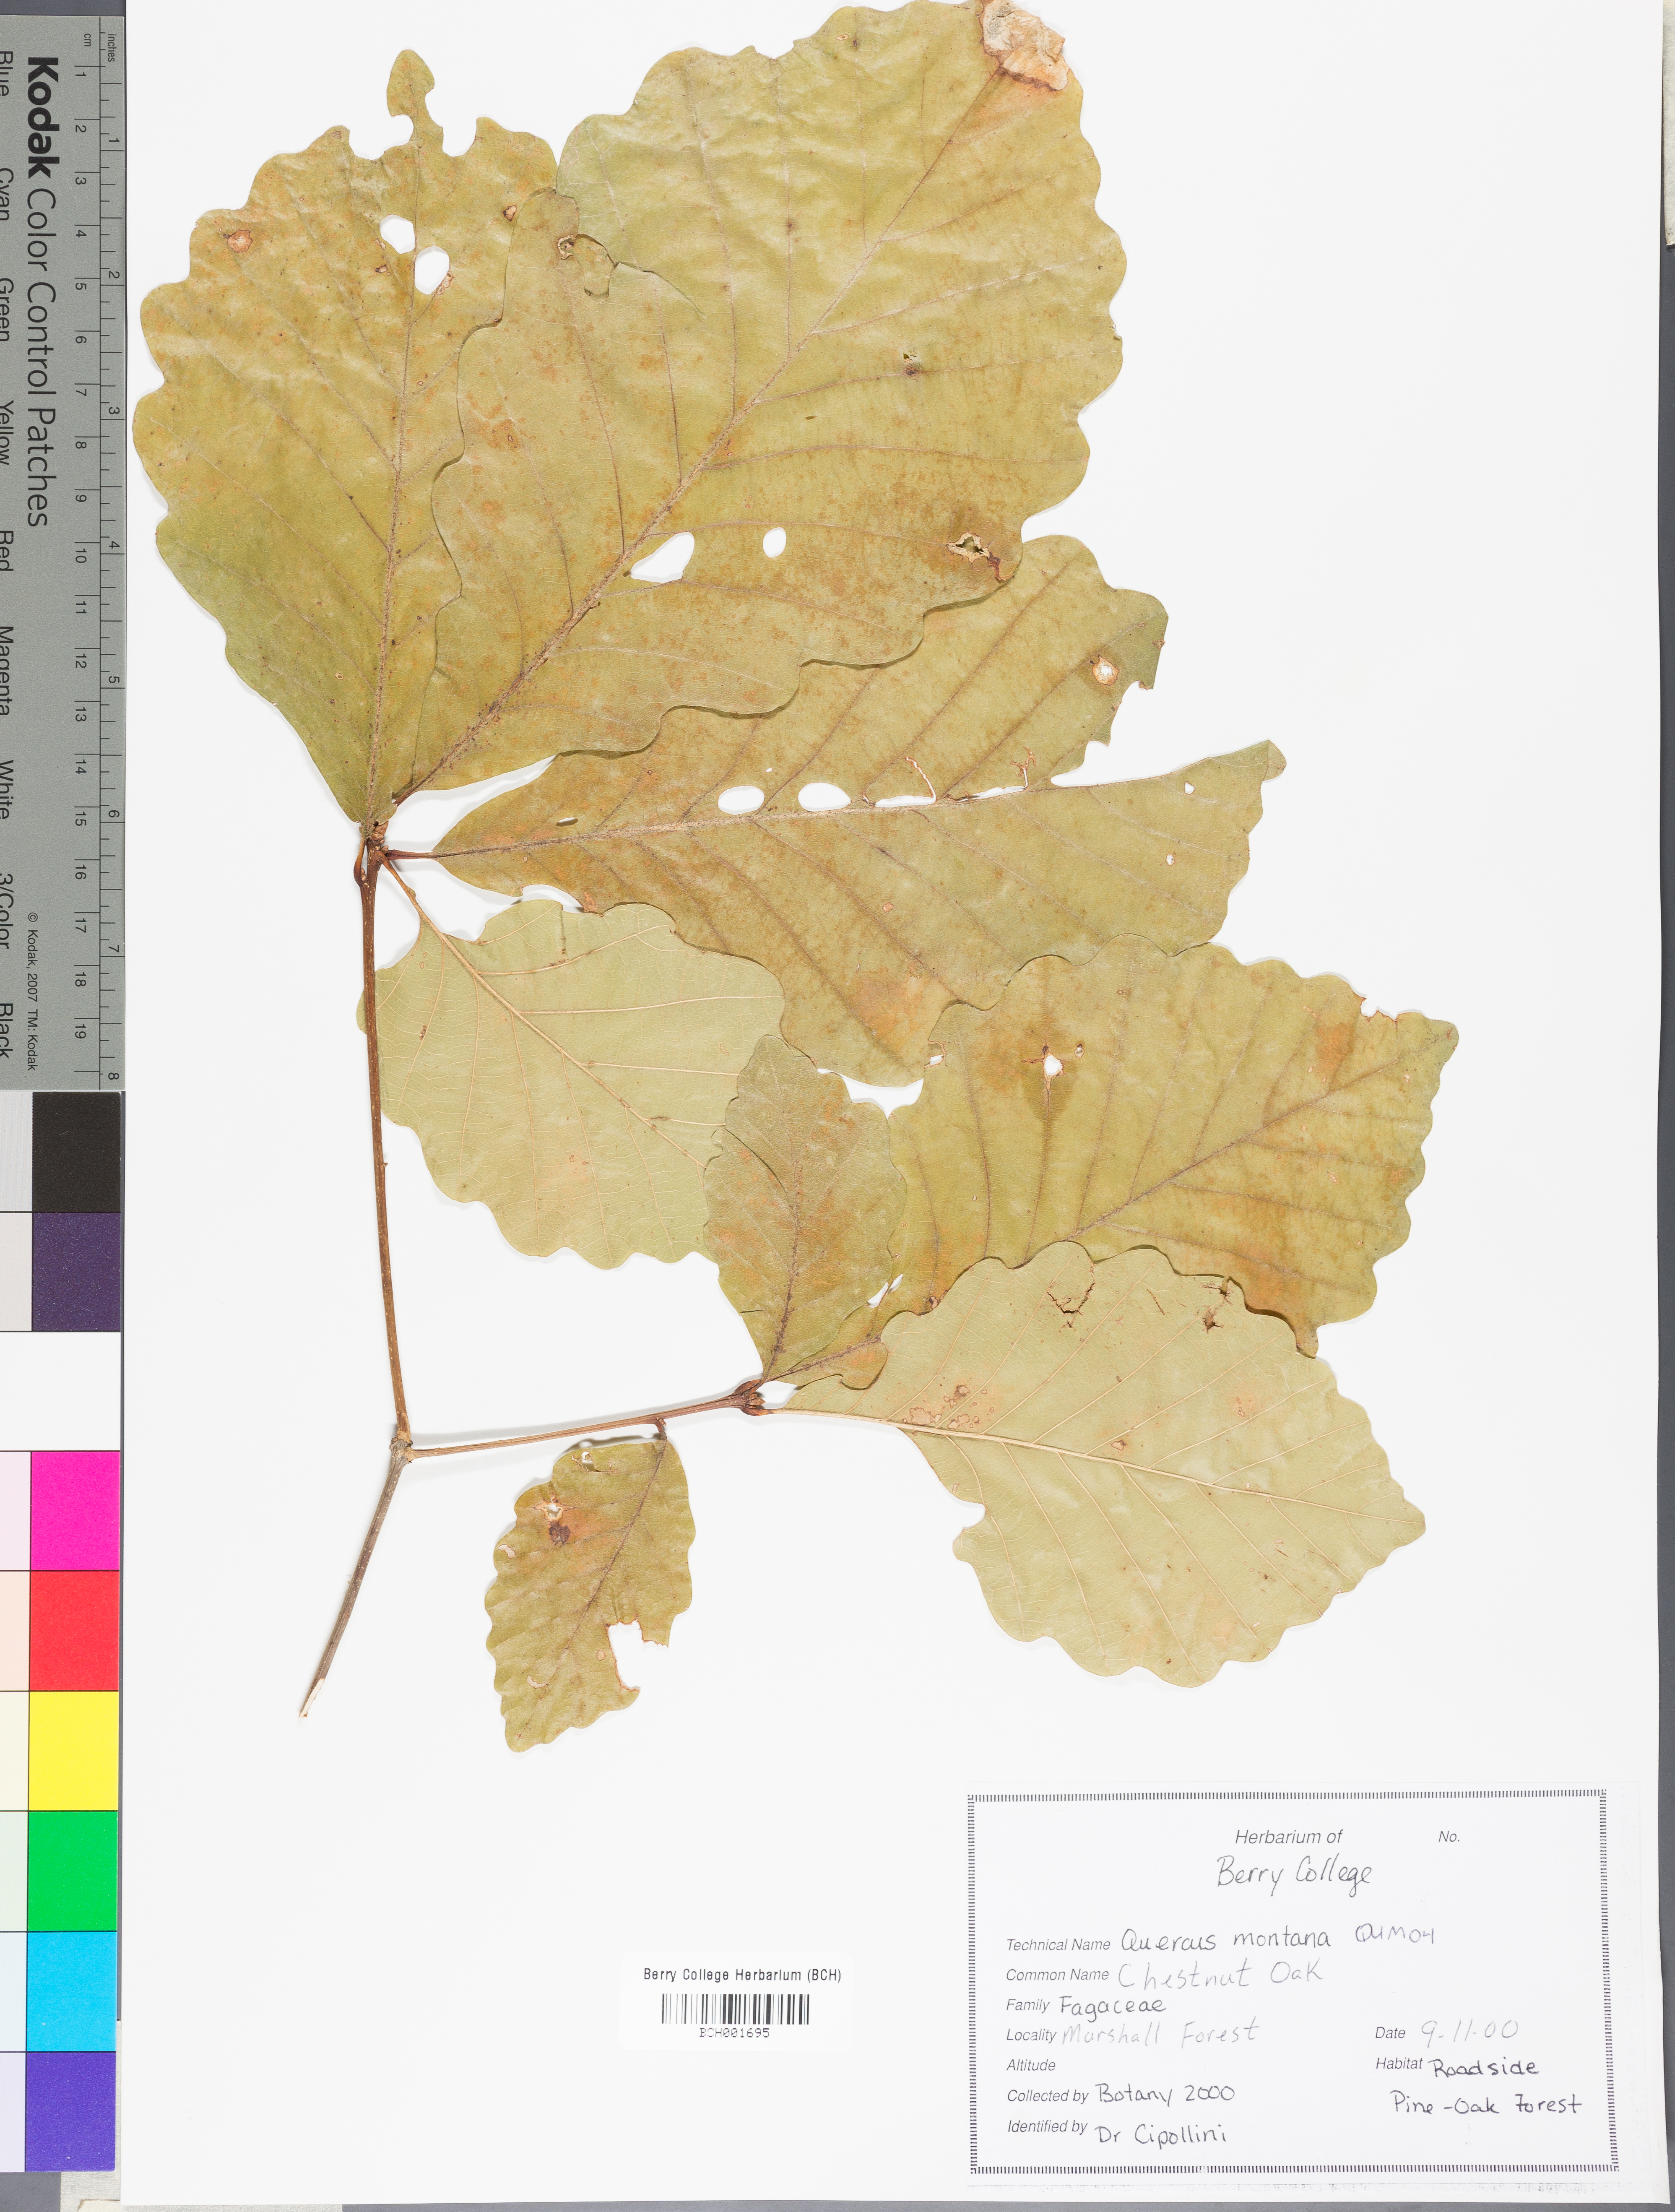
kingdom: Plantae
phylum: Tracheophyta
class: Magnoliopsida
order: Fagales
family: Fagaceae
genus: Quercus
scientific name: Quercus montana
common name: Chestnut oak
